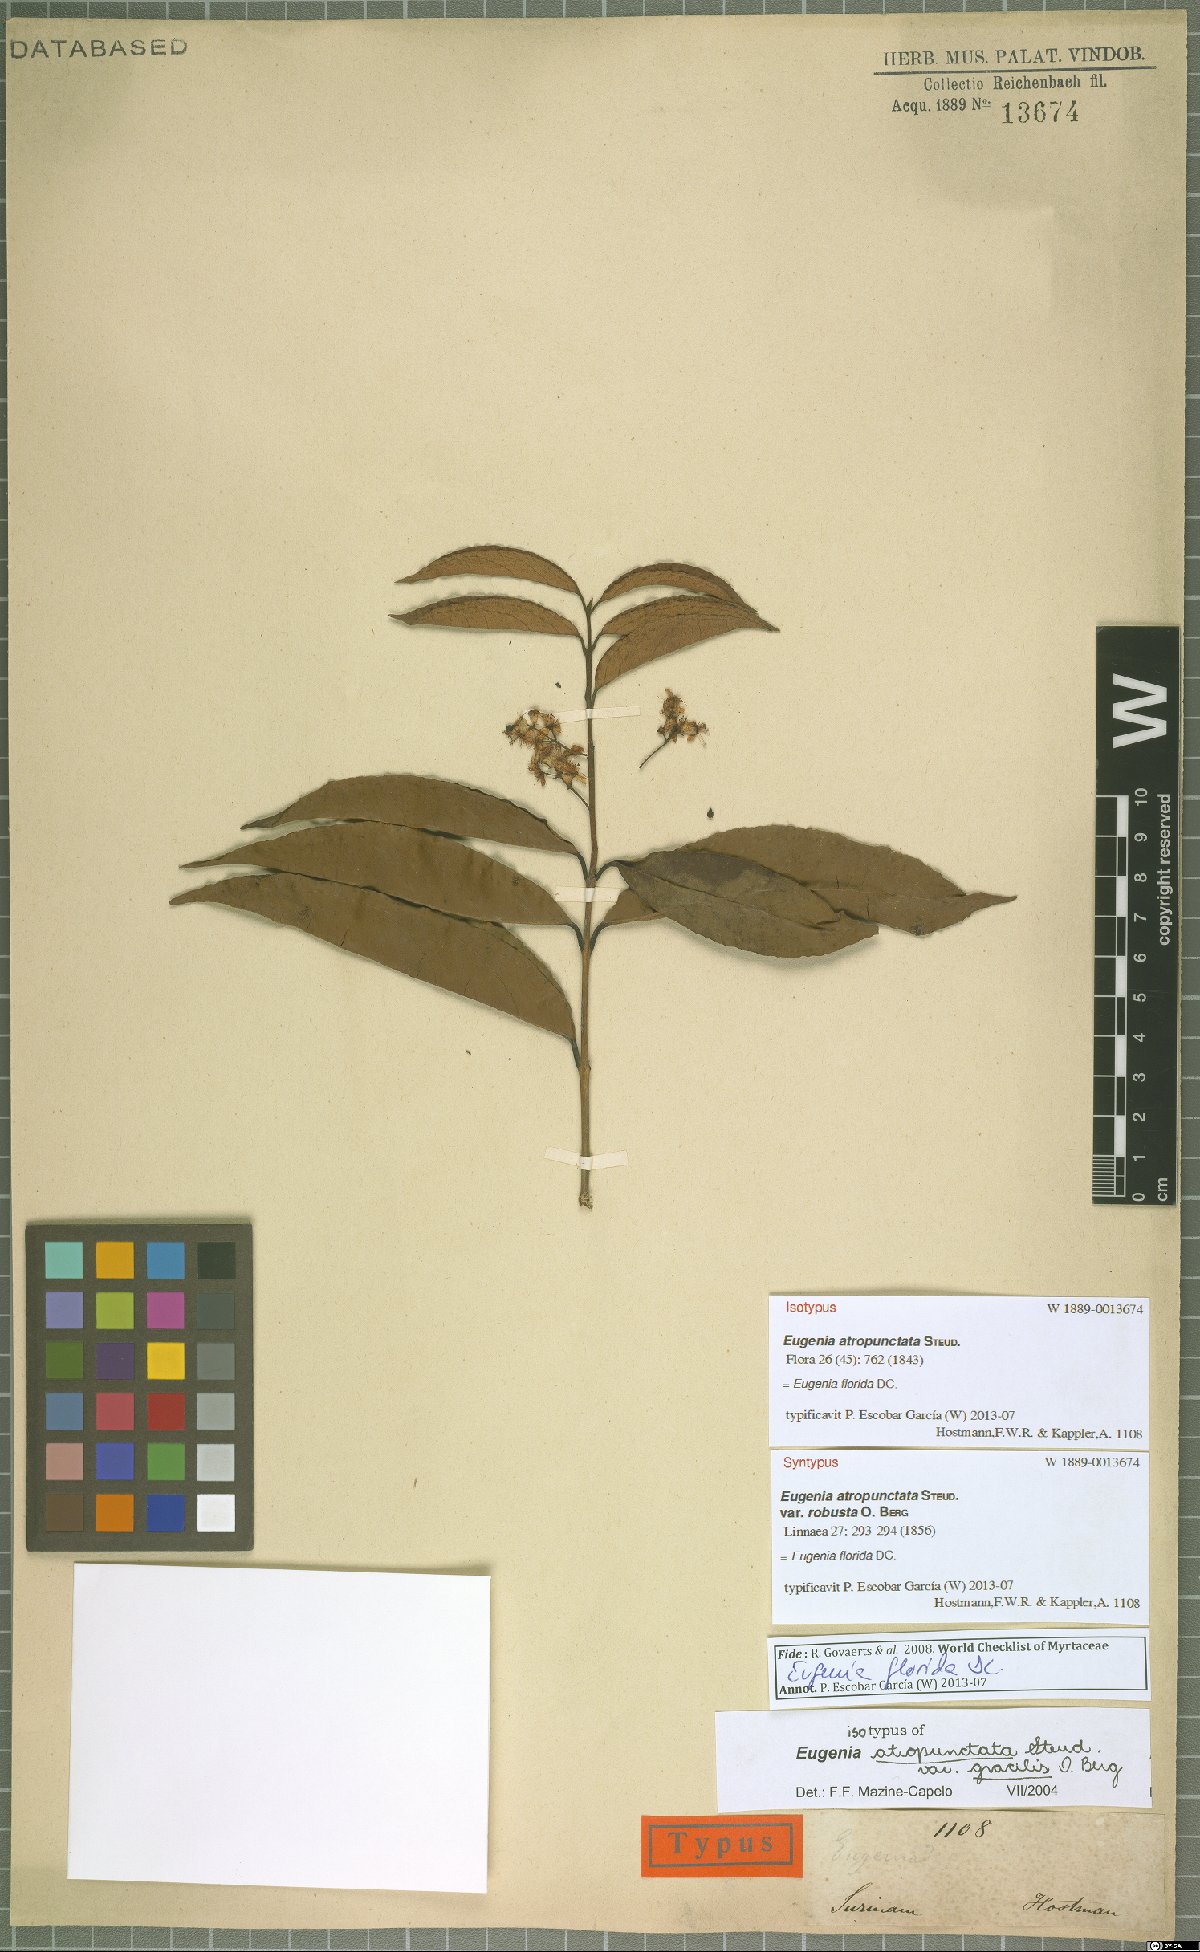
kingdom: Plantae
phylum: Tracheophyta
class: Magnoliopsida
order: Myrtales
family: Myrtaceae
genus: Eugenia
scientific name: Eugenia florida
